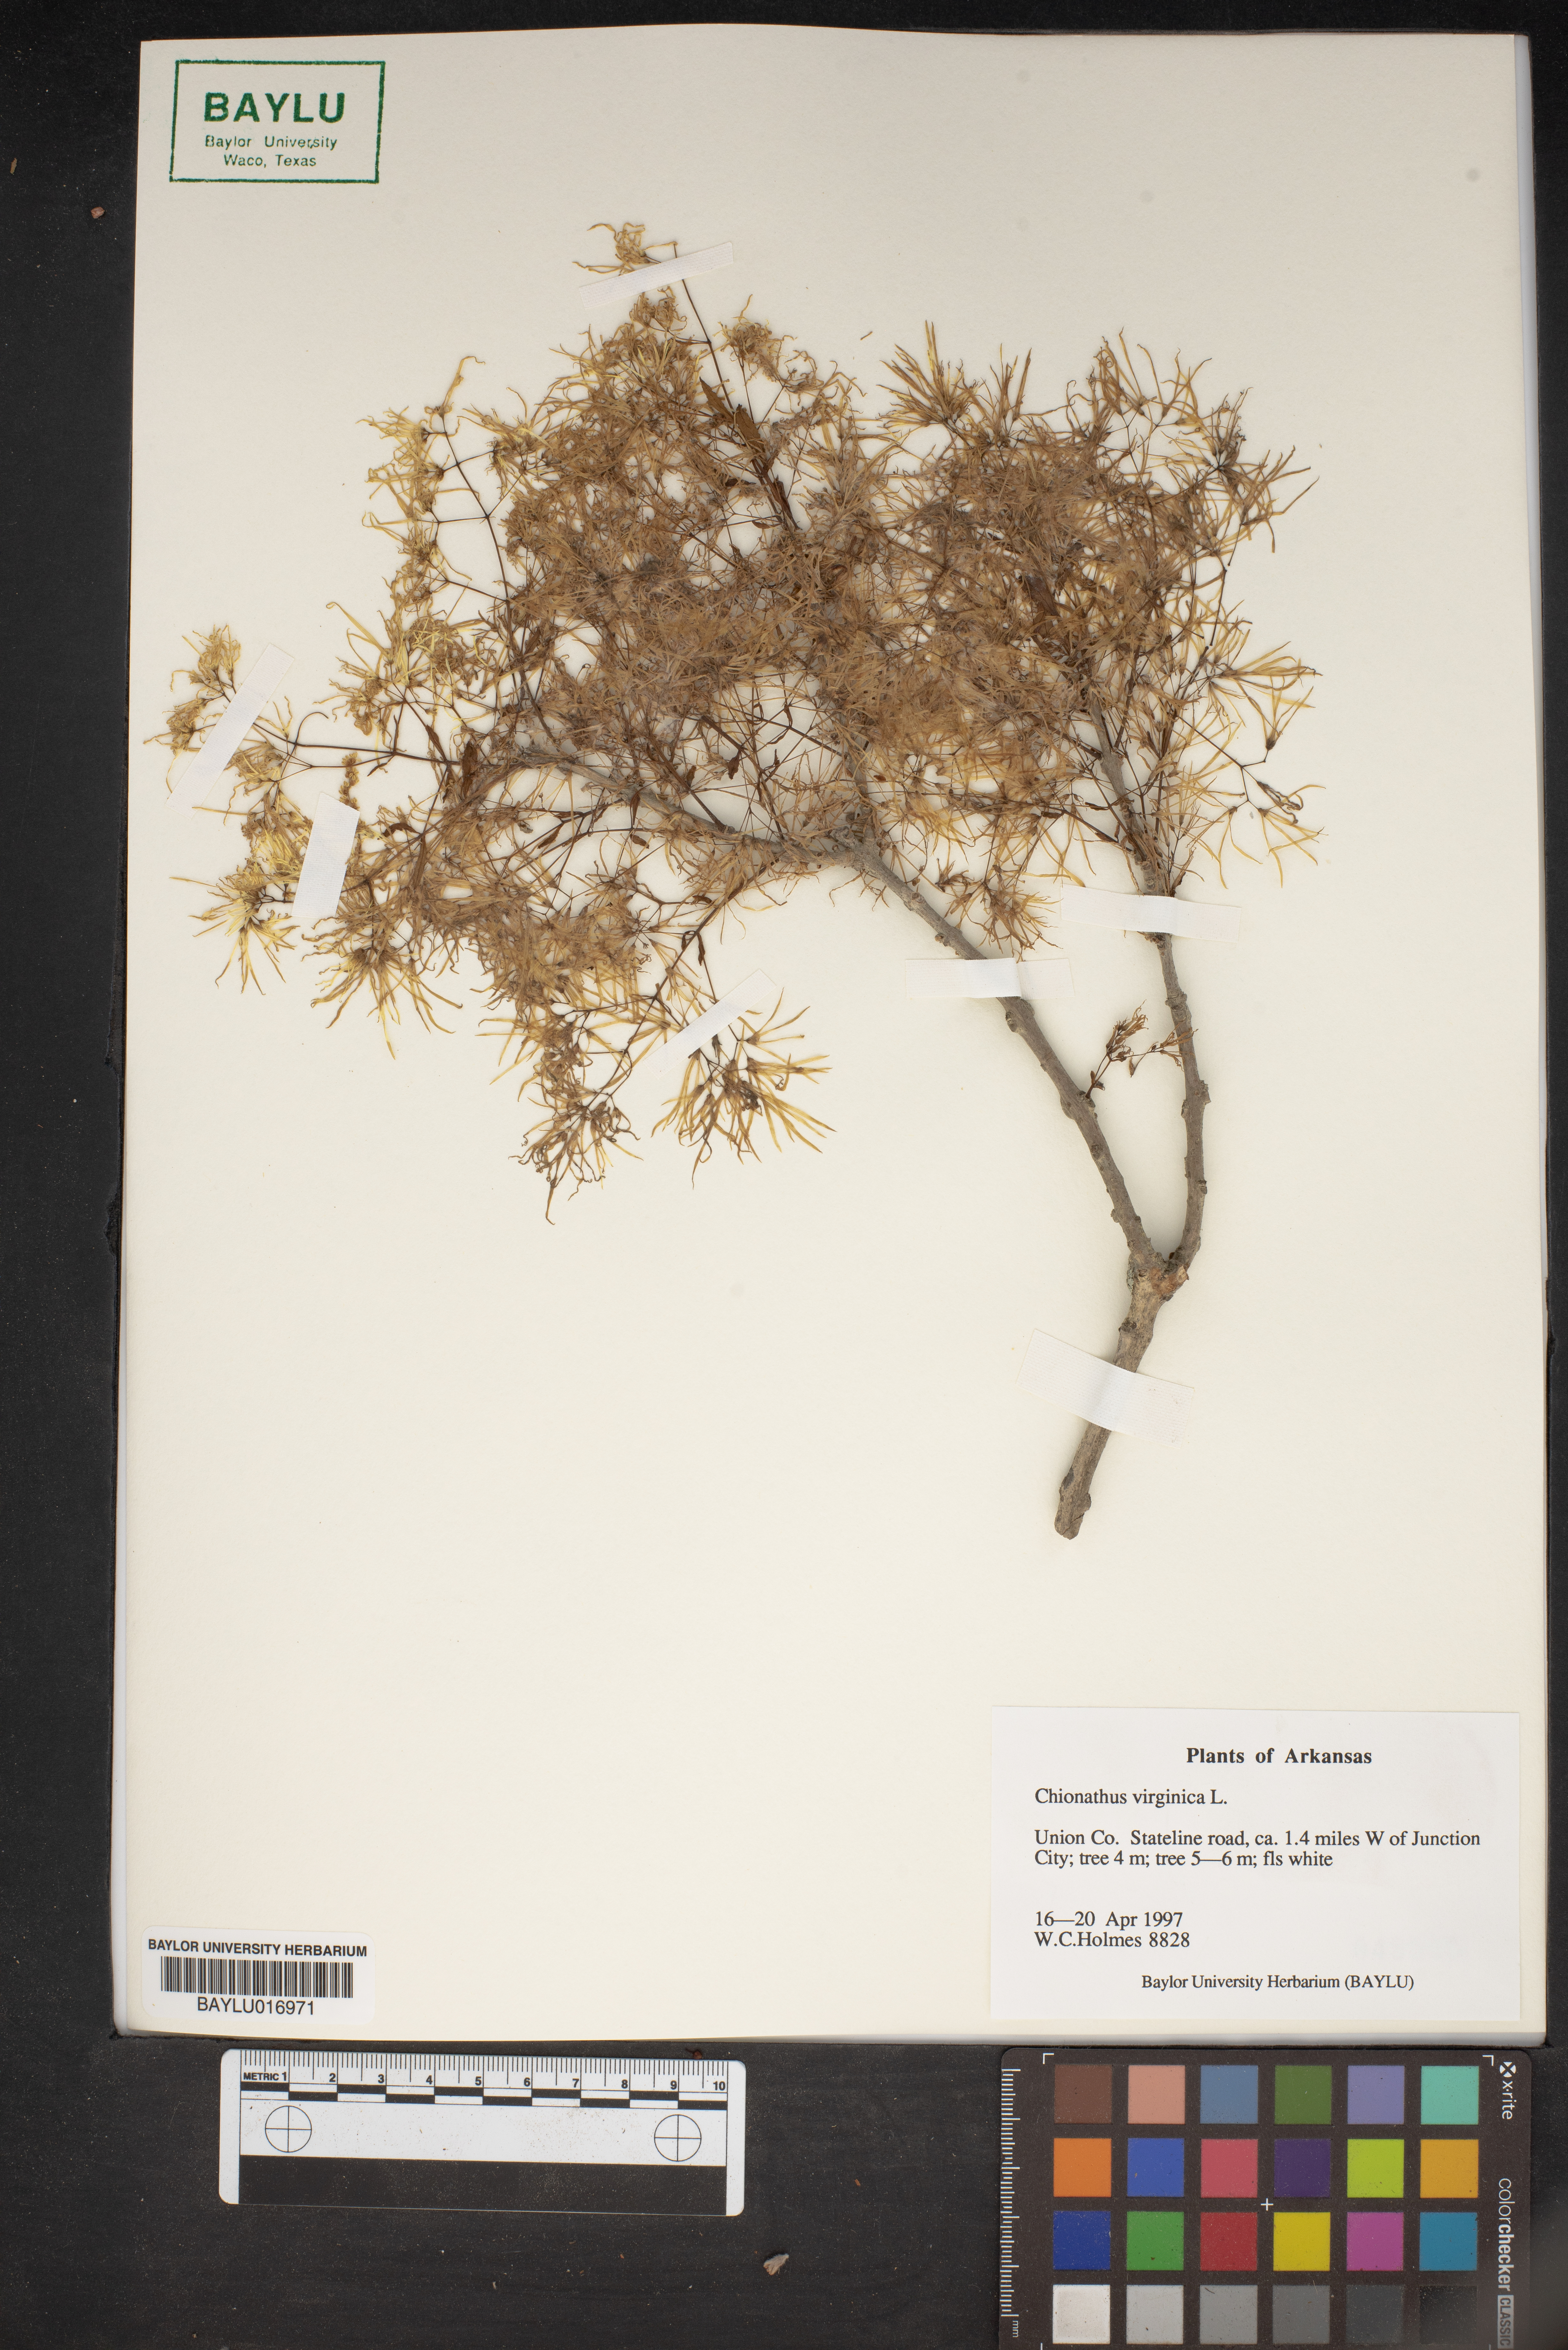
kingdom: Plantae
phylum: Tracheophyta
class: Magnoliopsida
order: Lamiales
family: Oleaceae
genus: Chionanthus
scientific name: Chionanthus virginicus
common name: American fringetree
